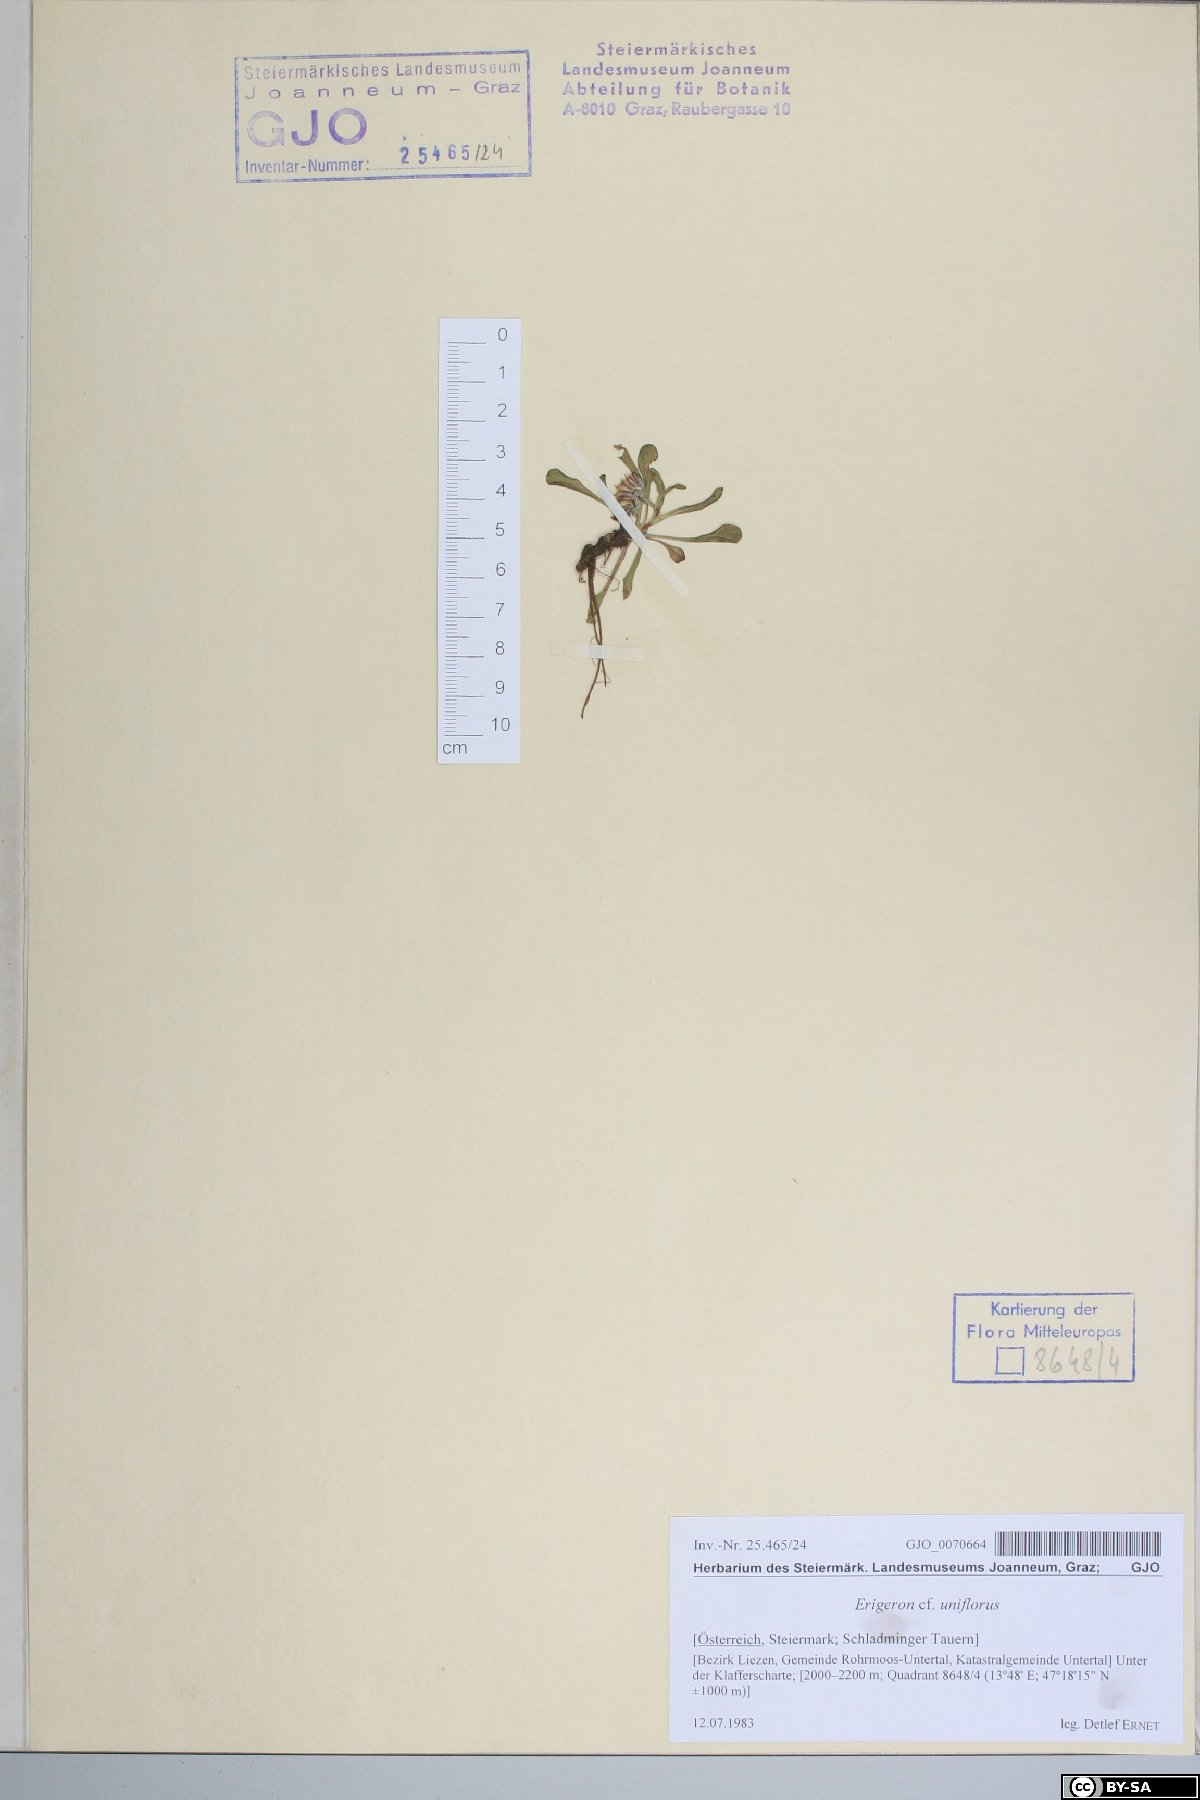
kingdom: Plantae
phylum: Tracheophyta
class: Magnoliopsida
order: Asterales
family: Asteraceae
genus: Erigeron
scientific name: Erigeron uniflorus
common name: Northern daisy
